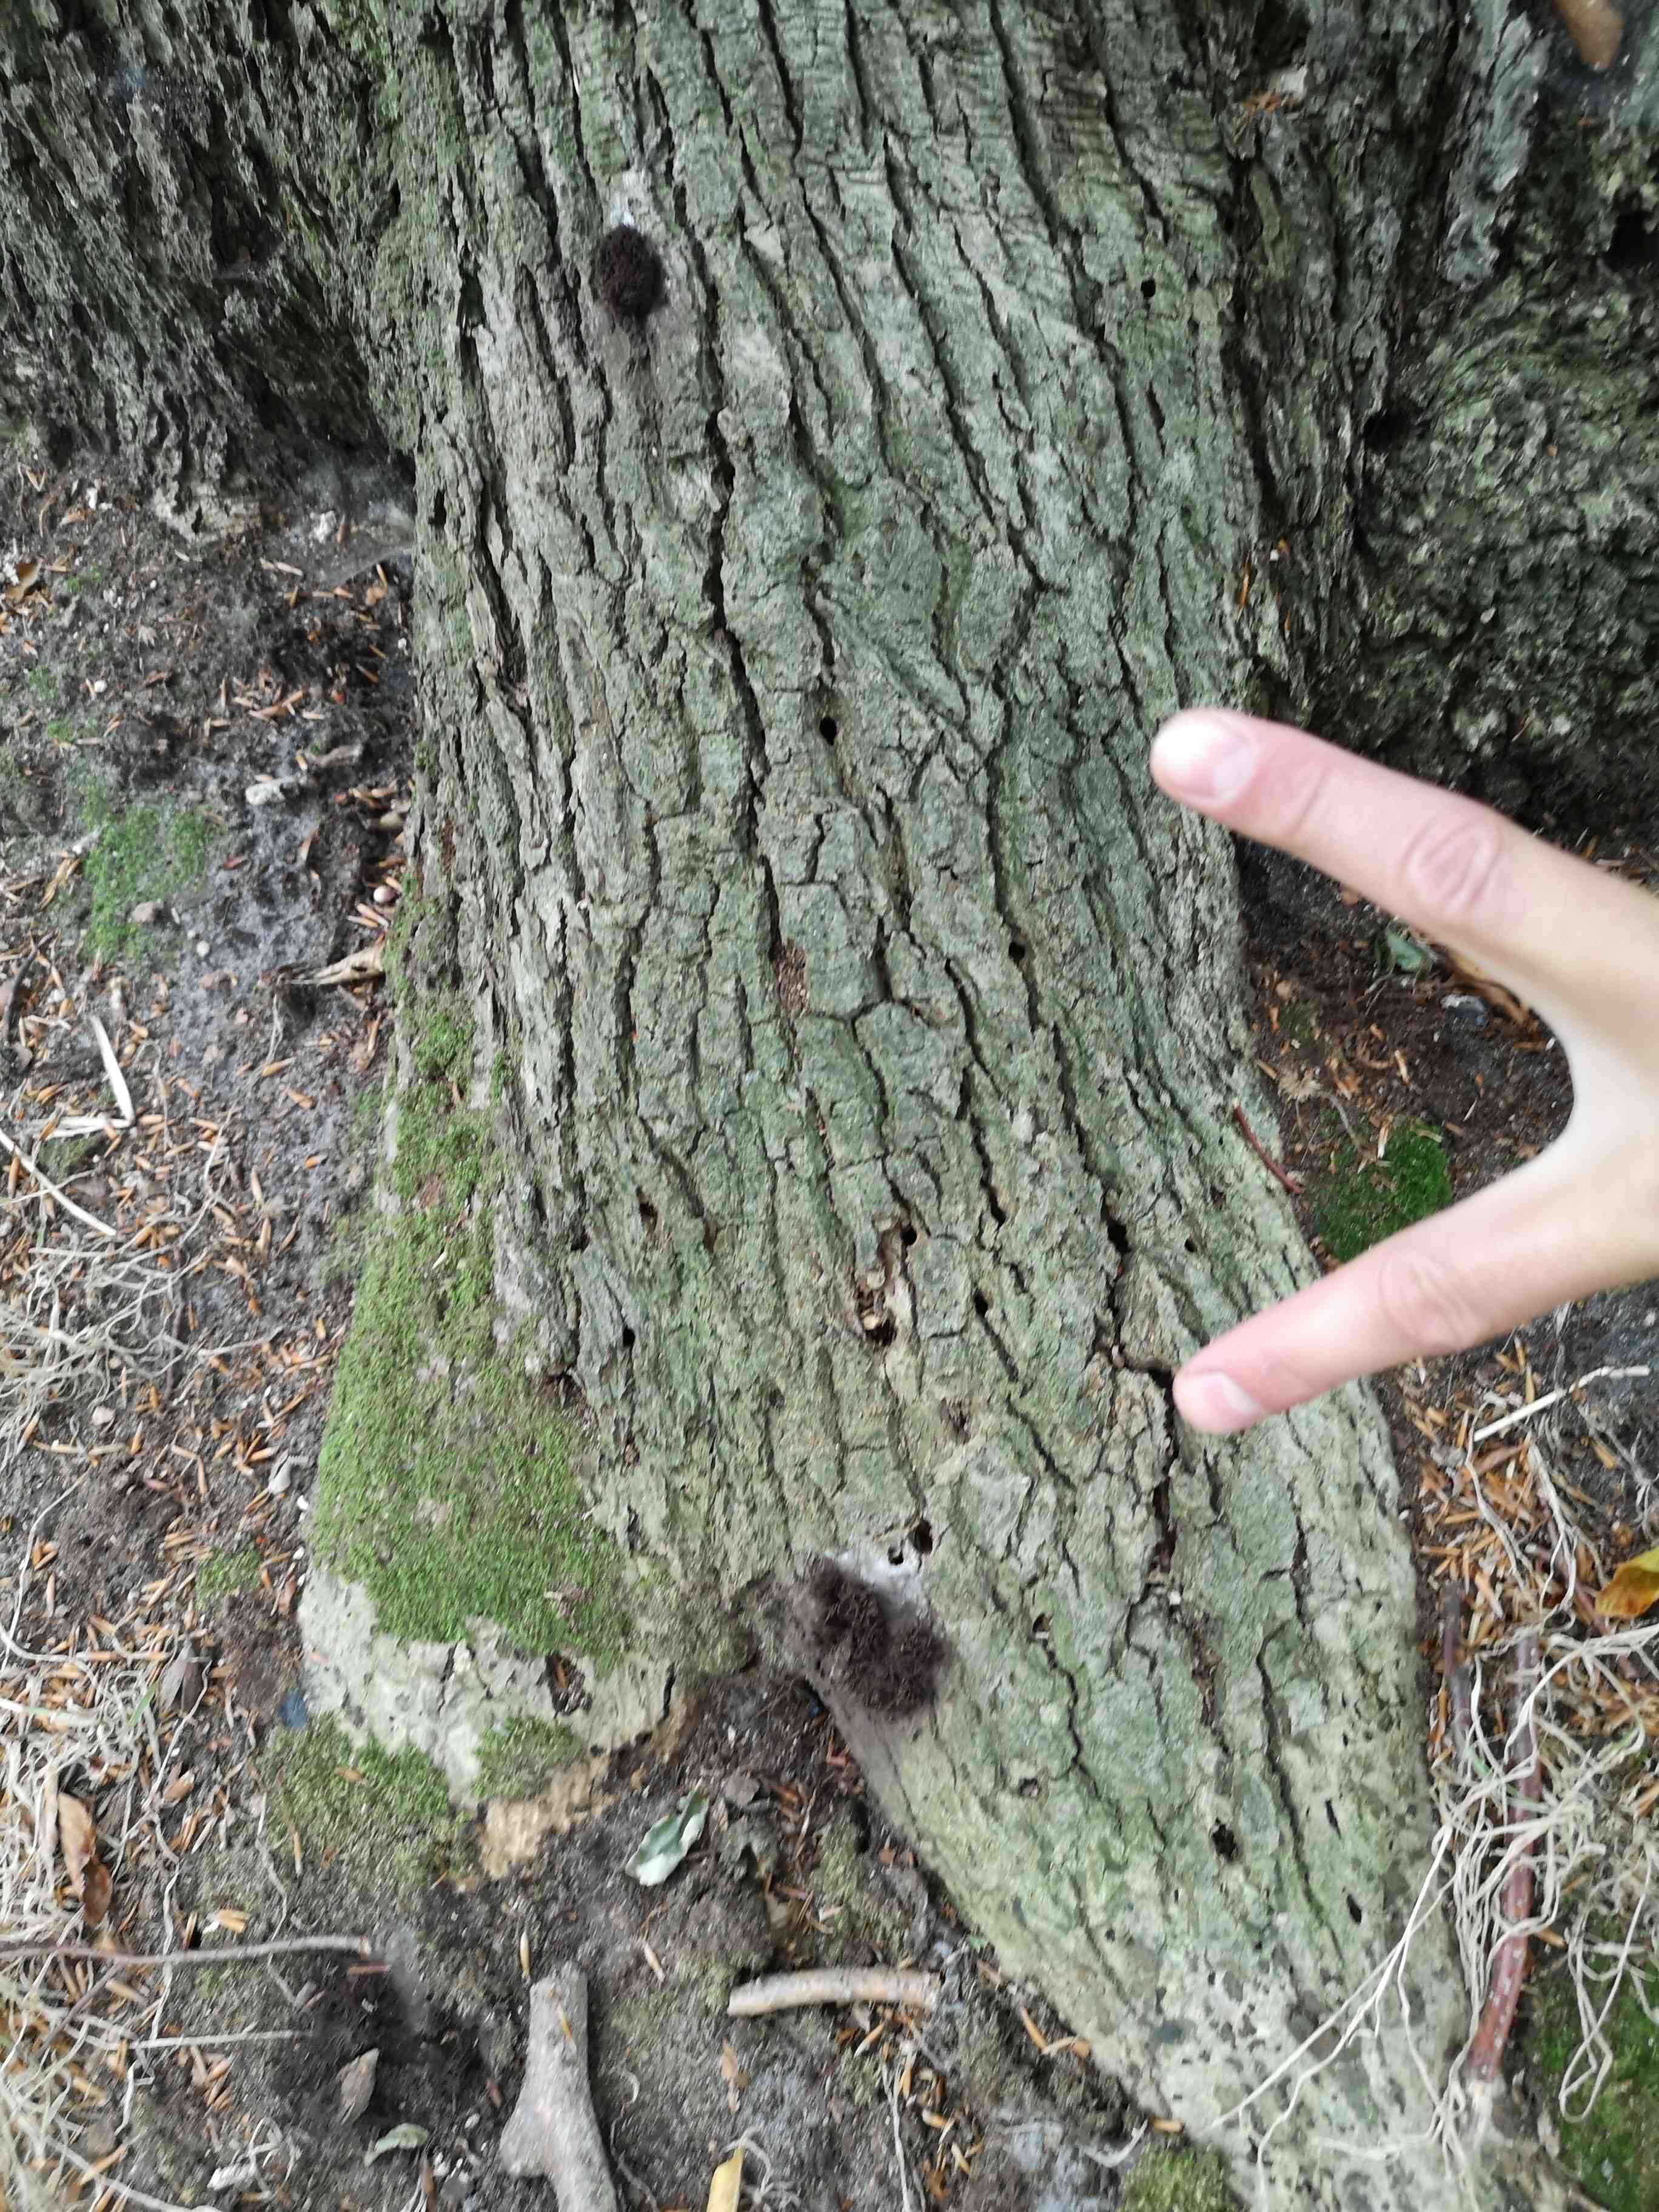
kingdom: Protozoa
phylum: Mycetozoa
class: Myxomycetes
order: Stemonitidales
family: Stemonitidaceae
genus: Stemonitis
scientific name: Stemonitis fusca
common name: sodbrun støvkølle
